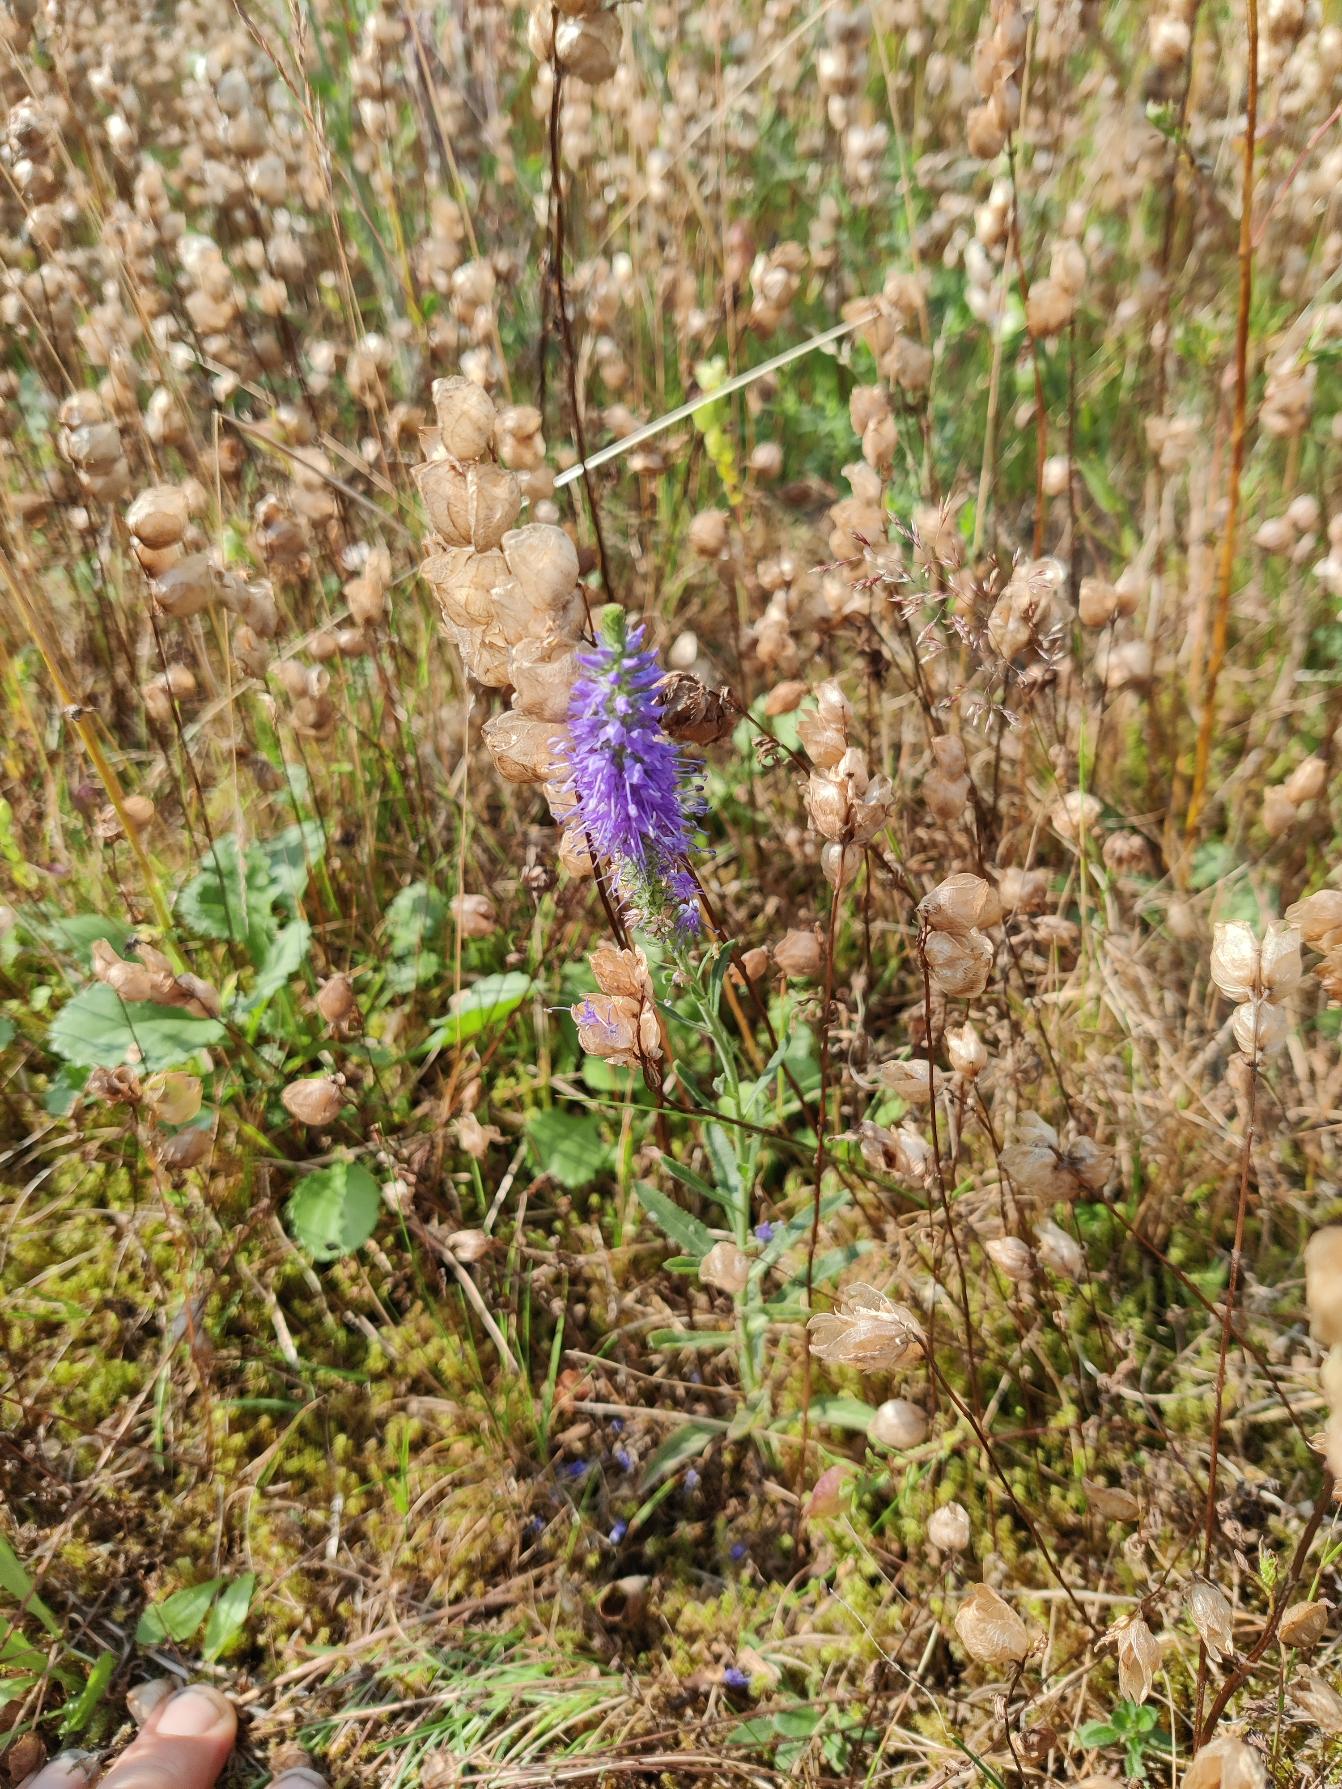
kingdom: Plantae
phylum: Tracheophyta
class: Magnoliopsida
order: Lamiales
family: Plantaginaceae
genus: Veronica
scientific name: Veronica spicata
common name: Aks-ærenpris
